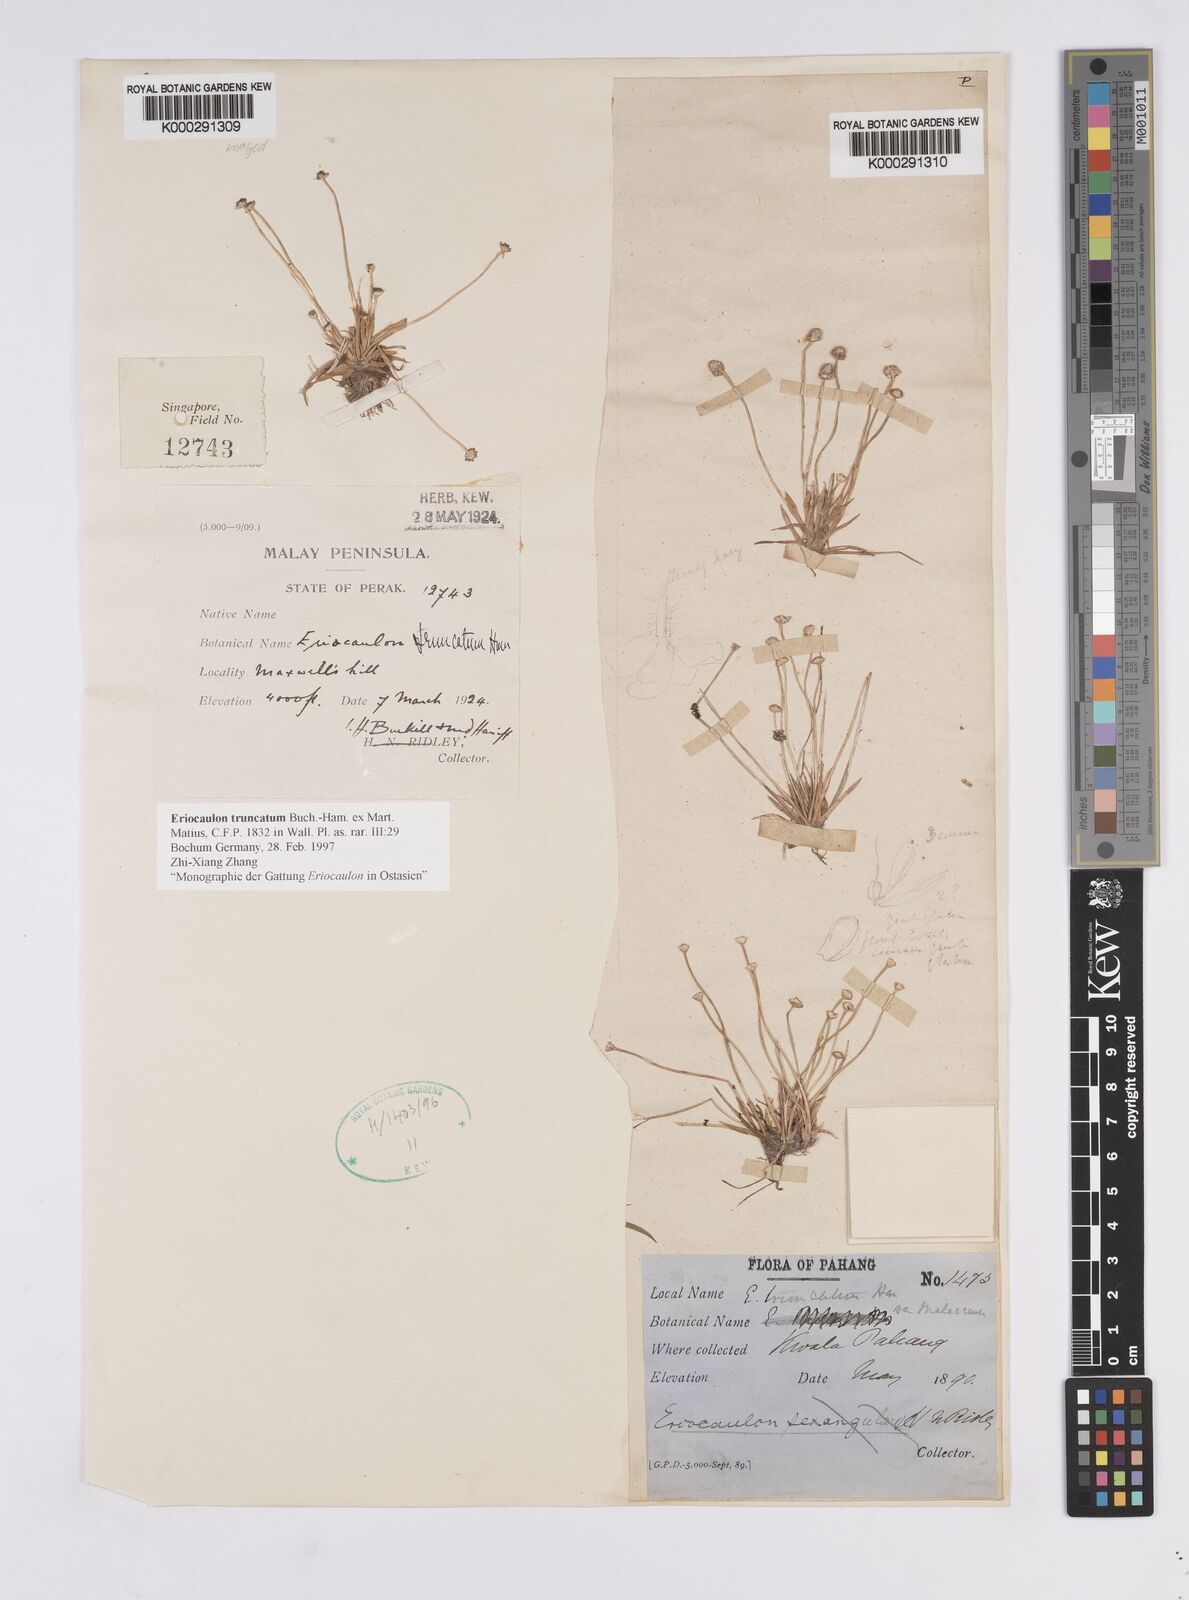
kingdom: Plantae
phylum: Tracheophyta
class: Liliopsida
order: Poales
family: Eriocaulaceae
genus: Eriocaulon
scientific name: Eriocaulon truncatum
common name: Short pipe-wort
